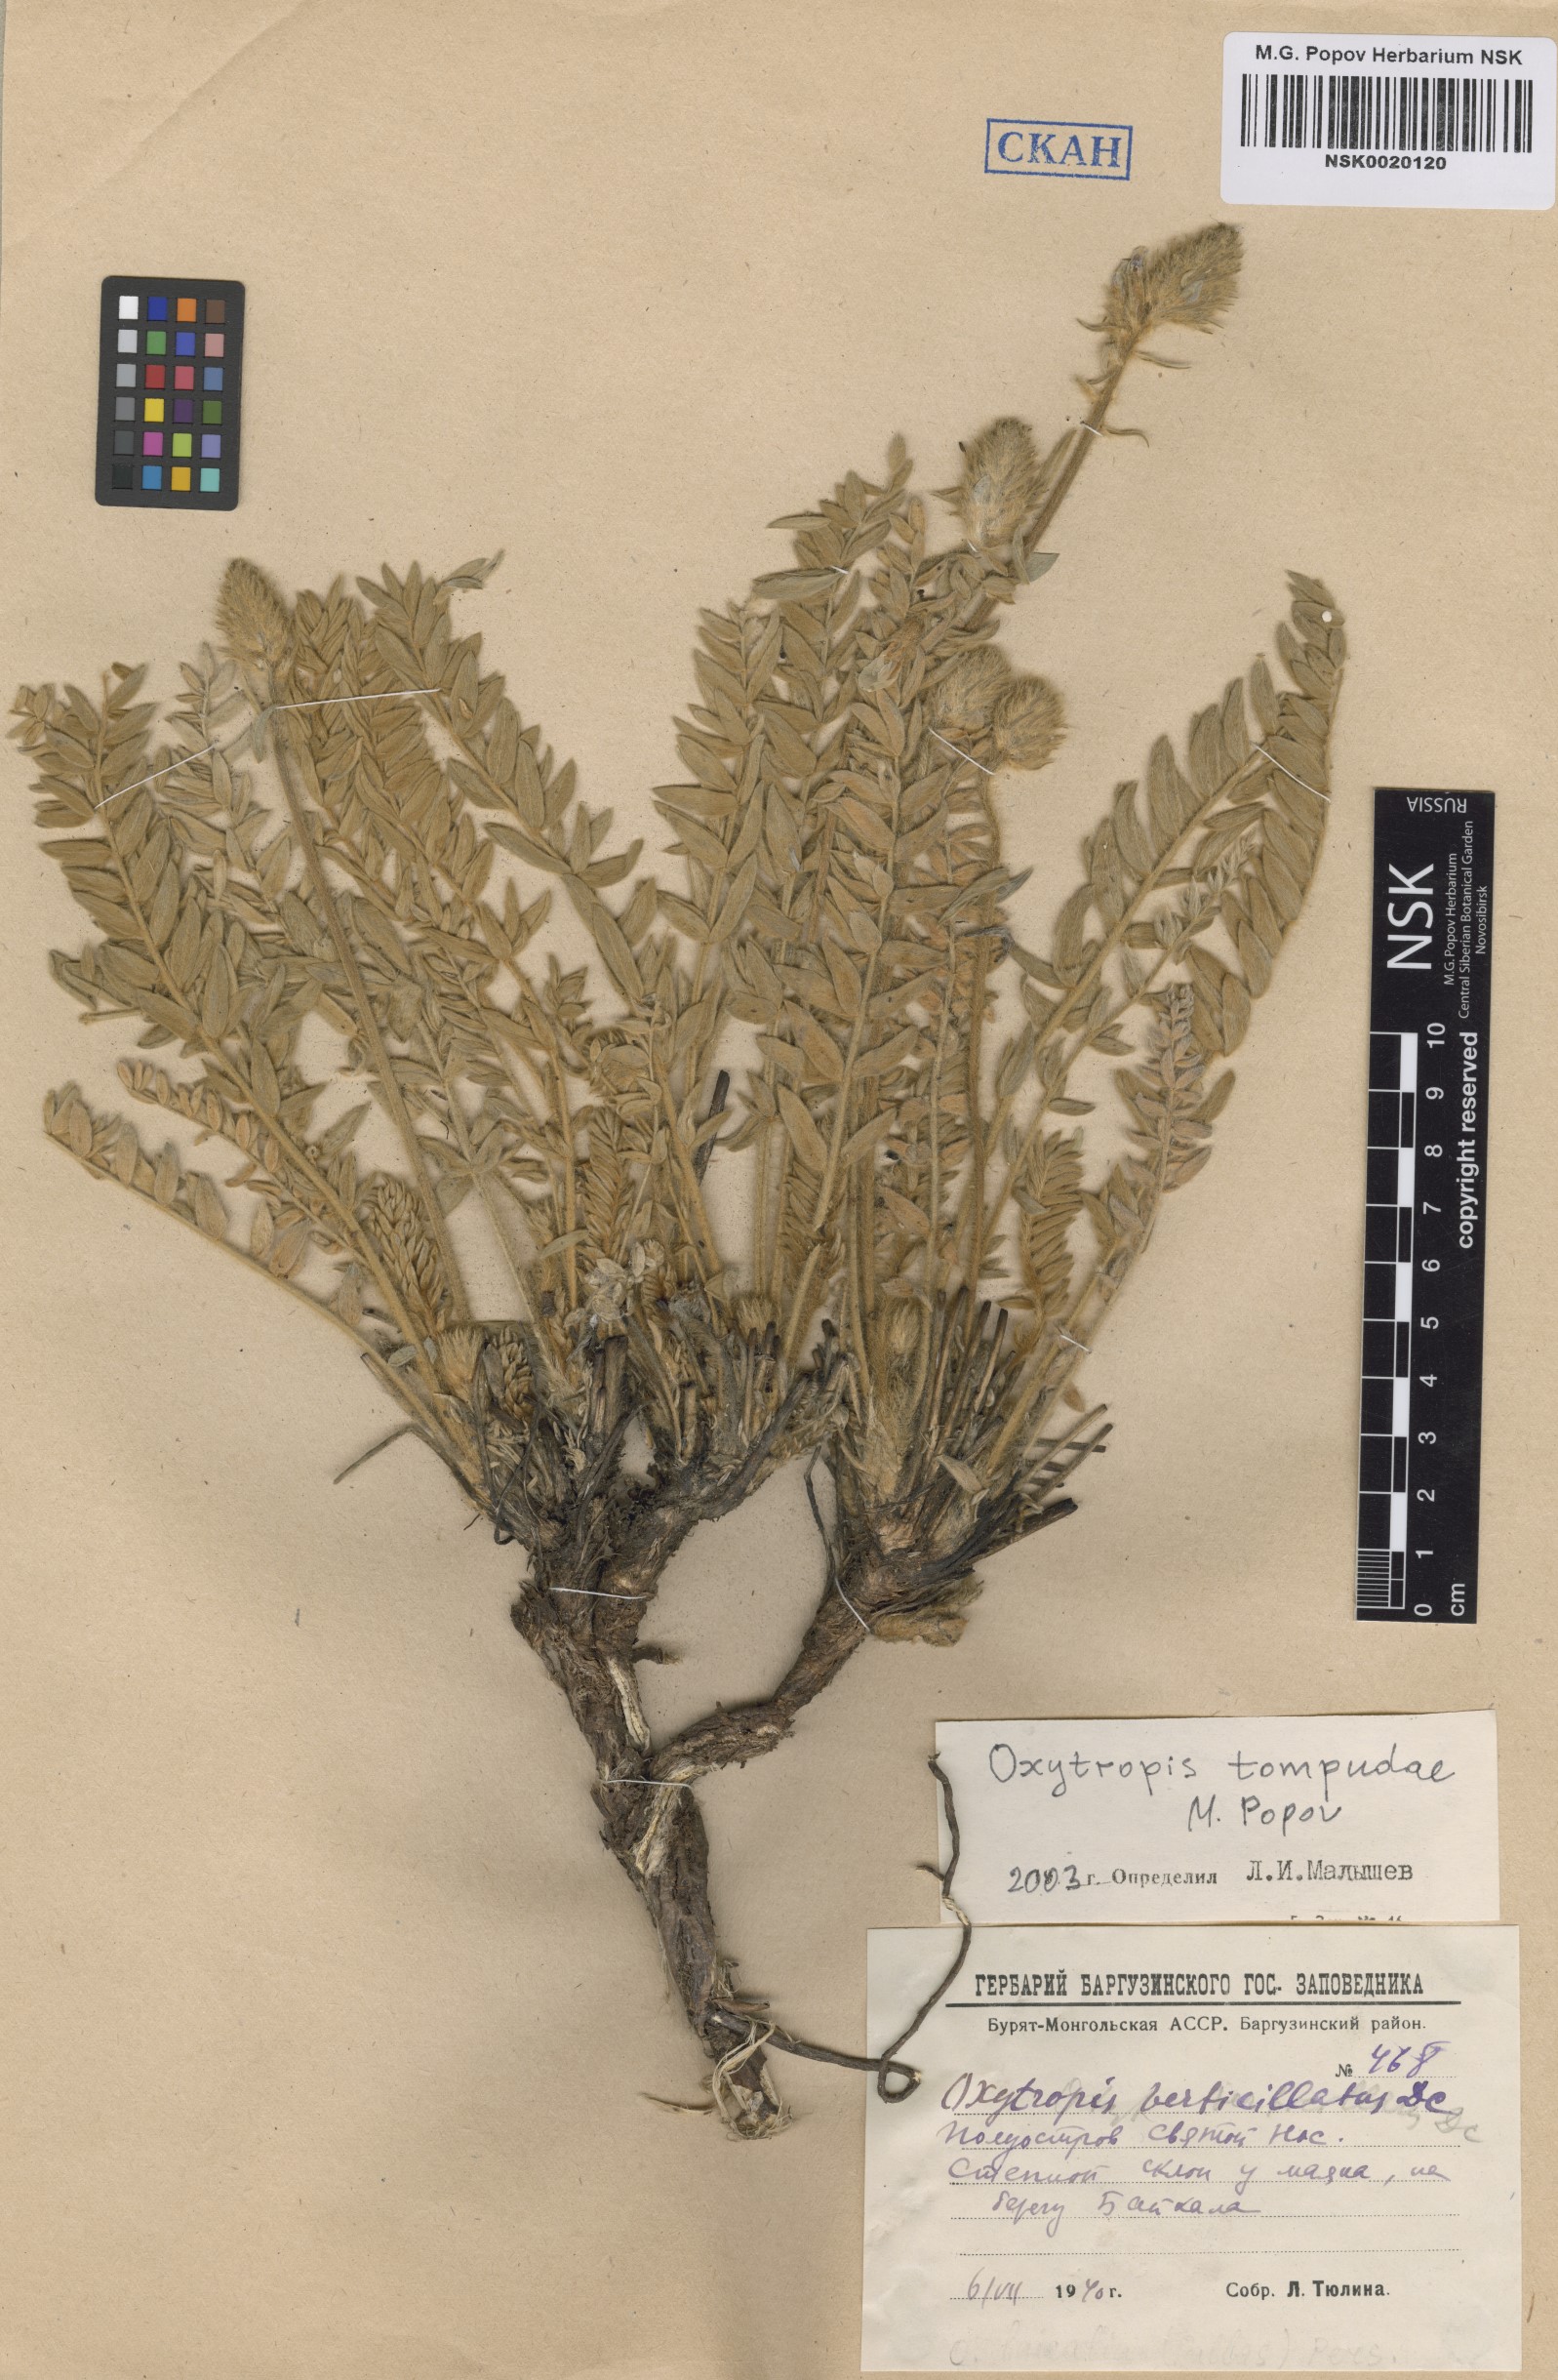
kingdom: Plantae
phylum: Tracheophyta
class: Magnoliopsida
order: Fabales
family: Fabaceae
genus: Oxytropis
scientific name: Oxytropis tompudae
